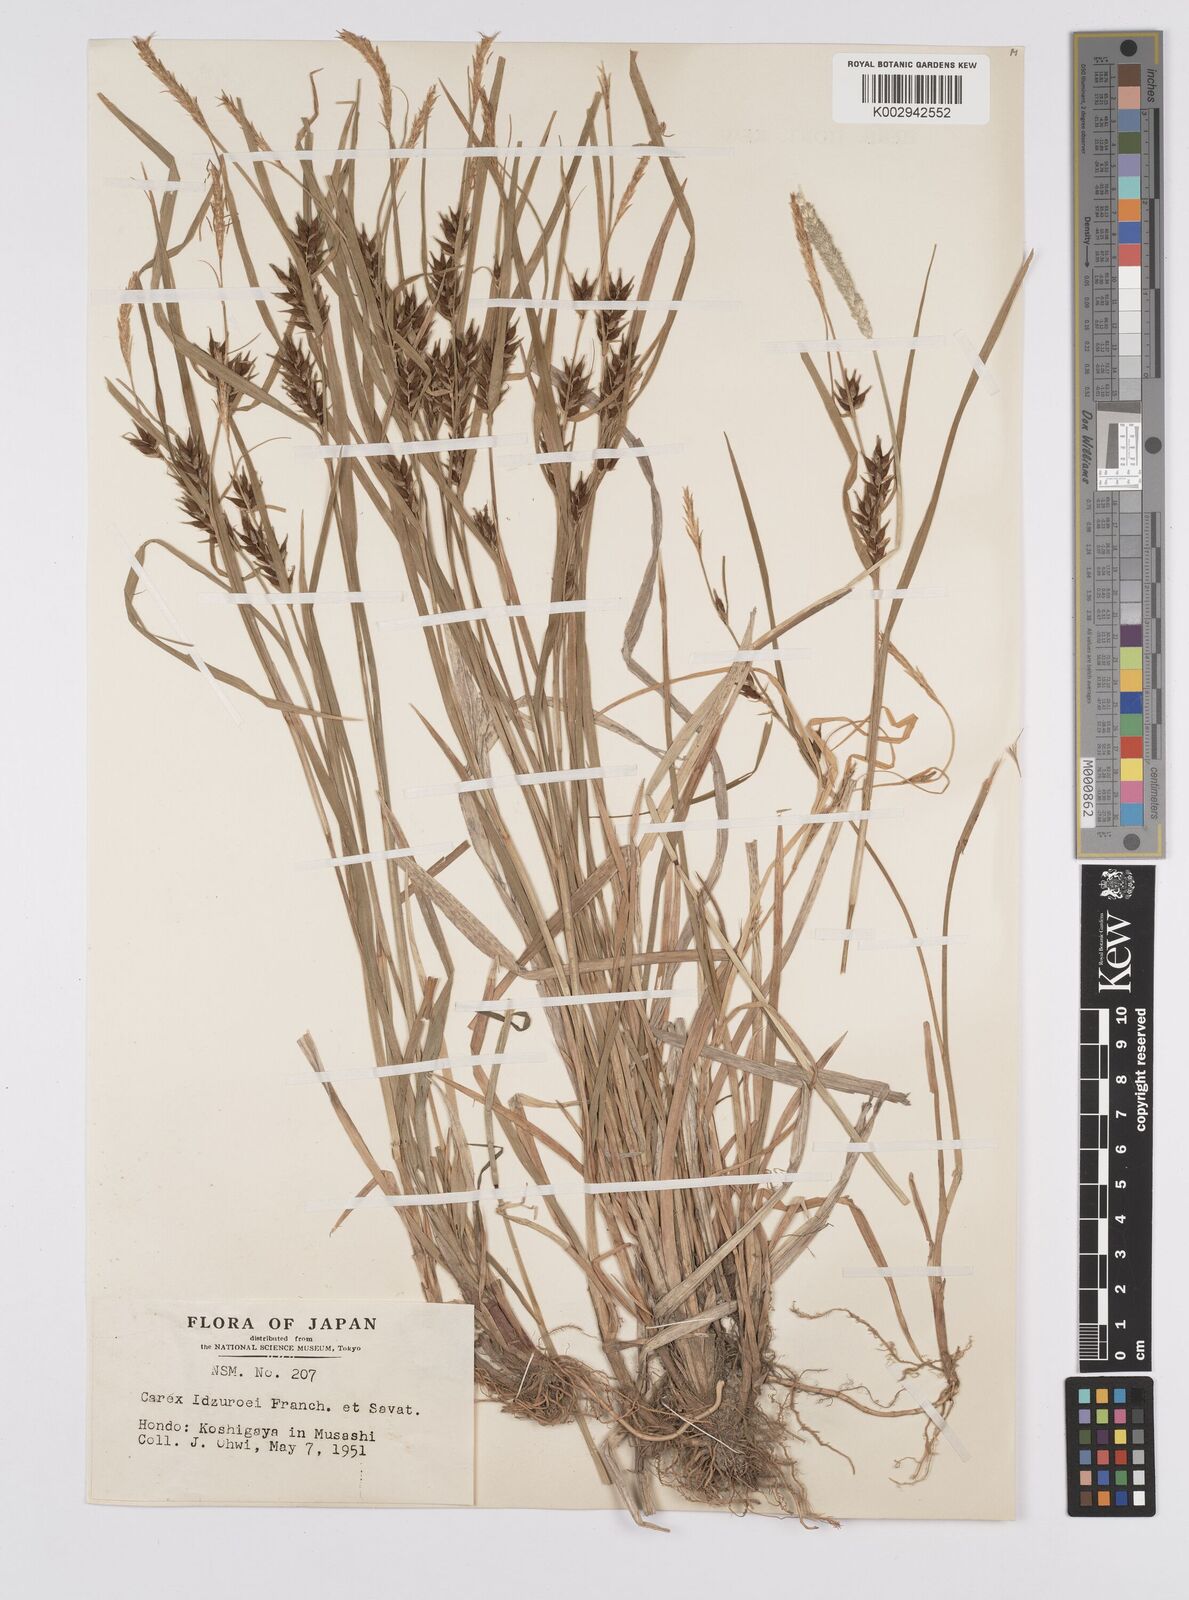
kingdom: Plantae
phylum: Tracheophyta
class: Liliopsida
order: Poales
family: Cyperaceae
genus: Carex
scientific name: Carex idzuroei
